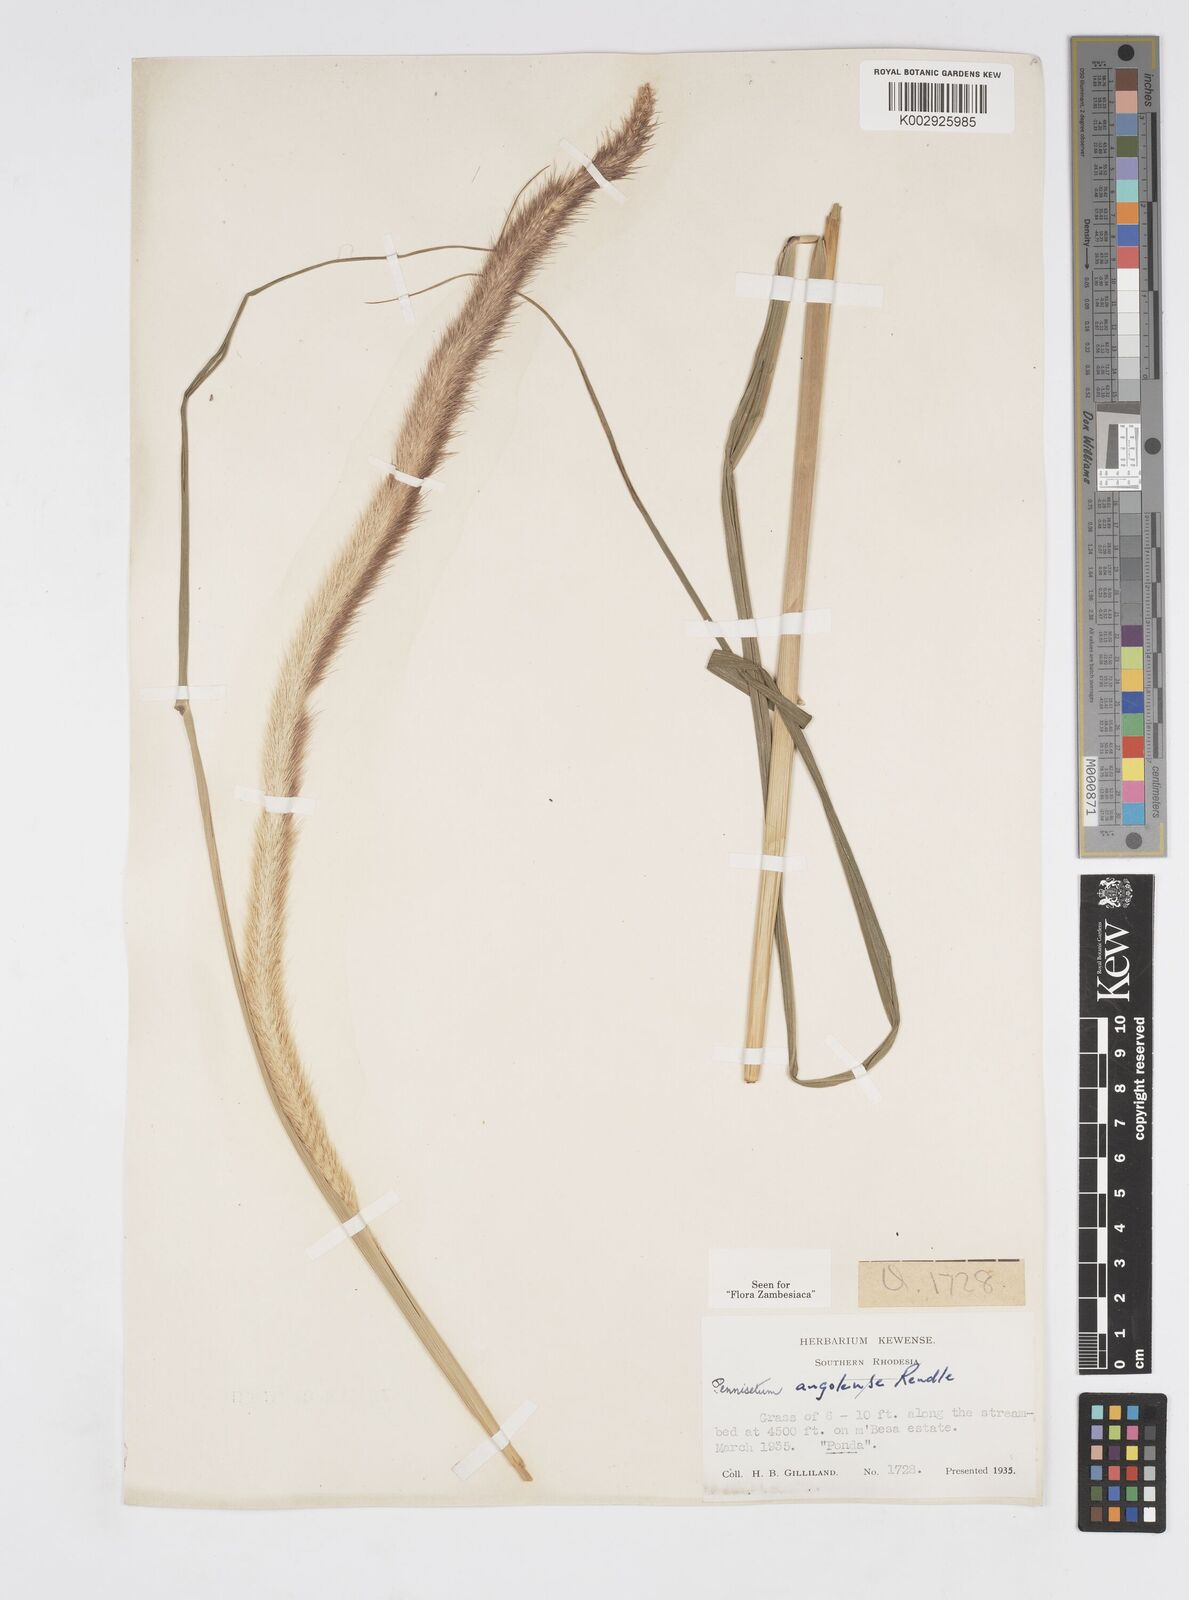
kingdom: Plantae
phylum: Tracheophyta
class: Liliopsida
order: Poales
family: Poaceae
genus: Cenchrus
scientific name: Cenchrus caudatus
